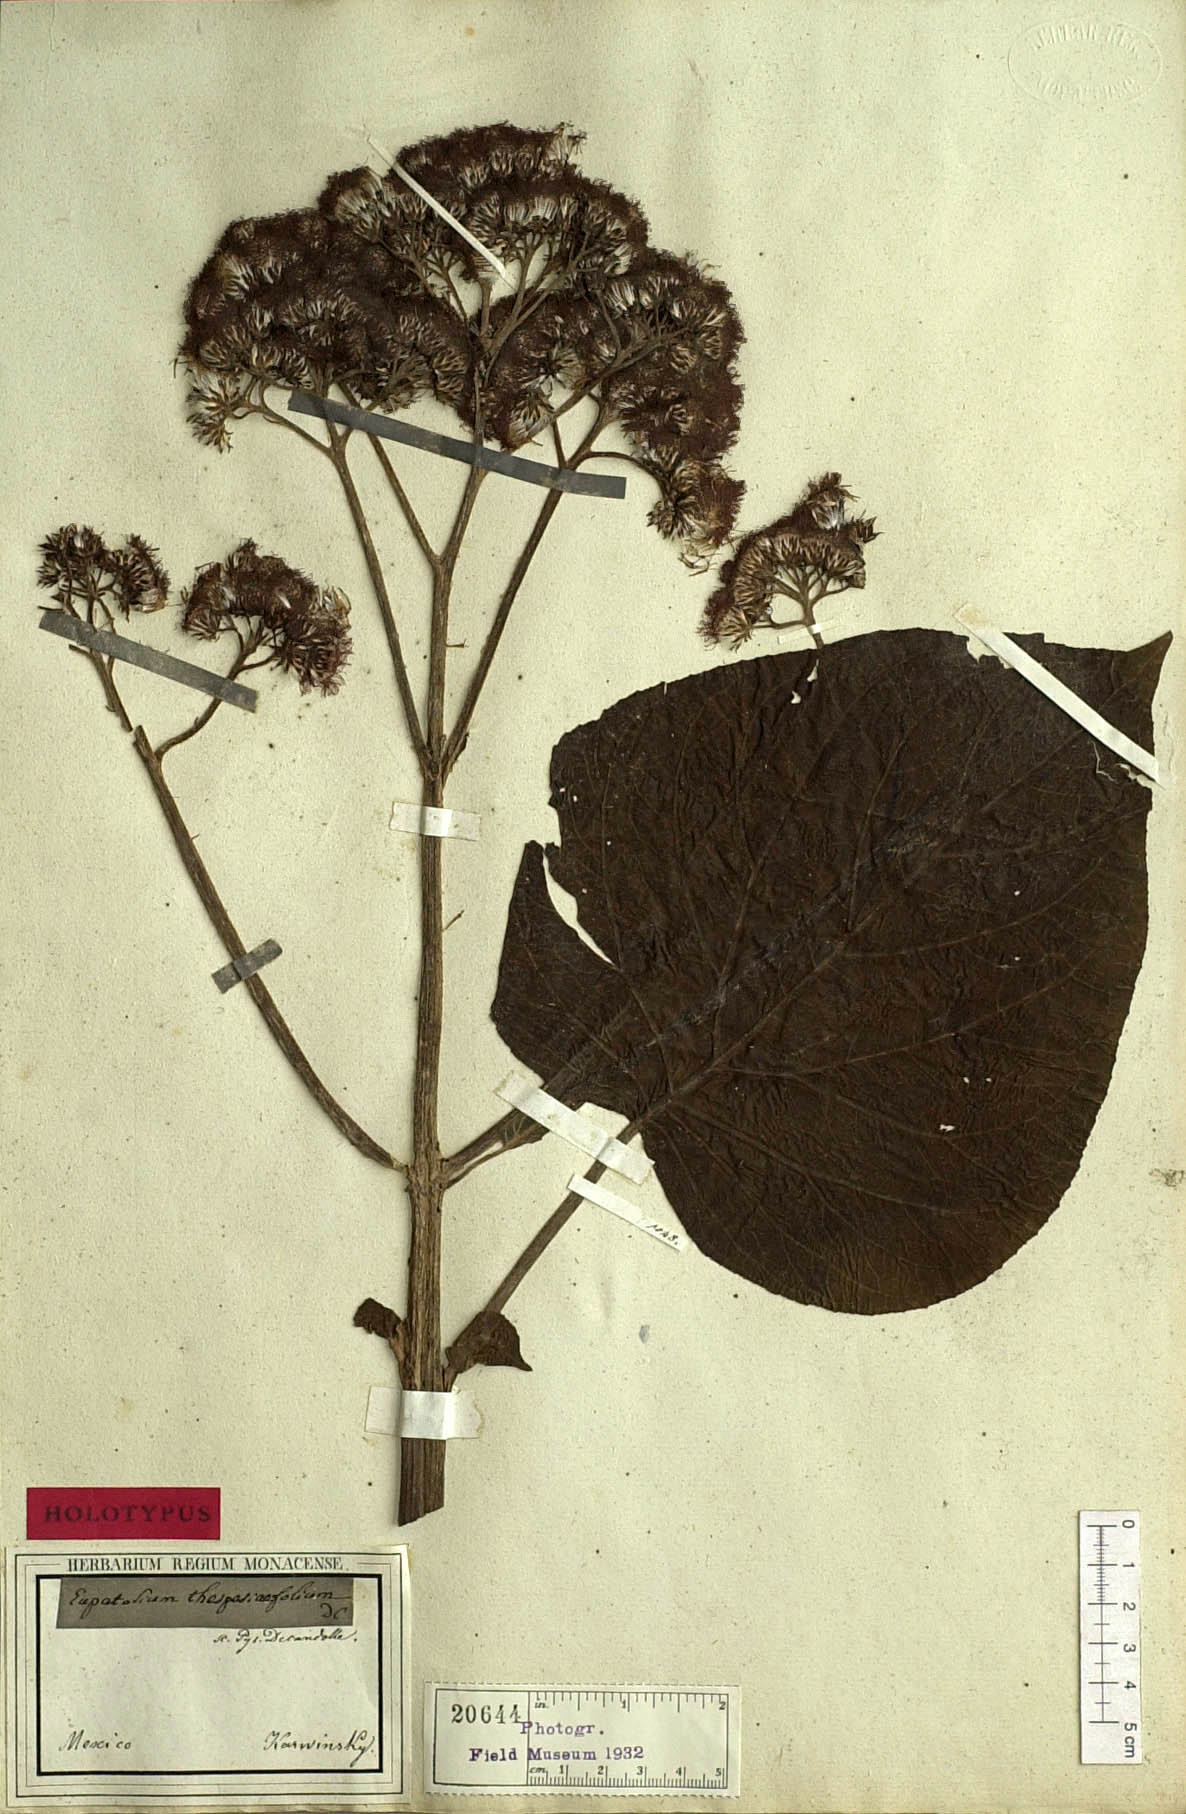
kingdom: Plantae
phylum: Tracheophyta
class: Magnoliopsida
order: Asterales
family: Asteraceae
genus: Bartlettina
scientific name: Bartlettina sordida
